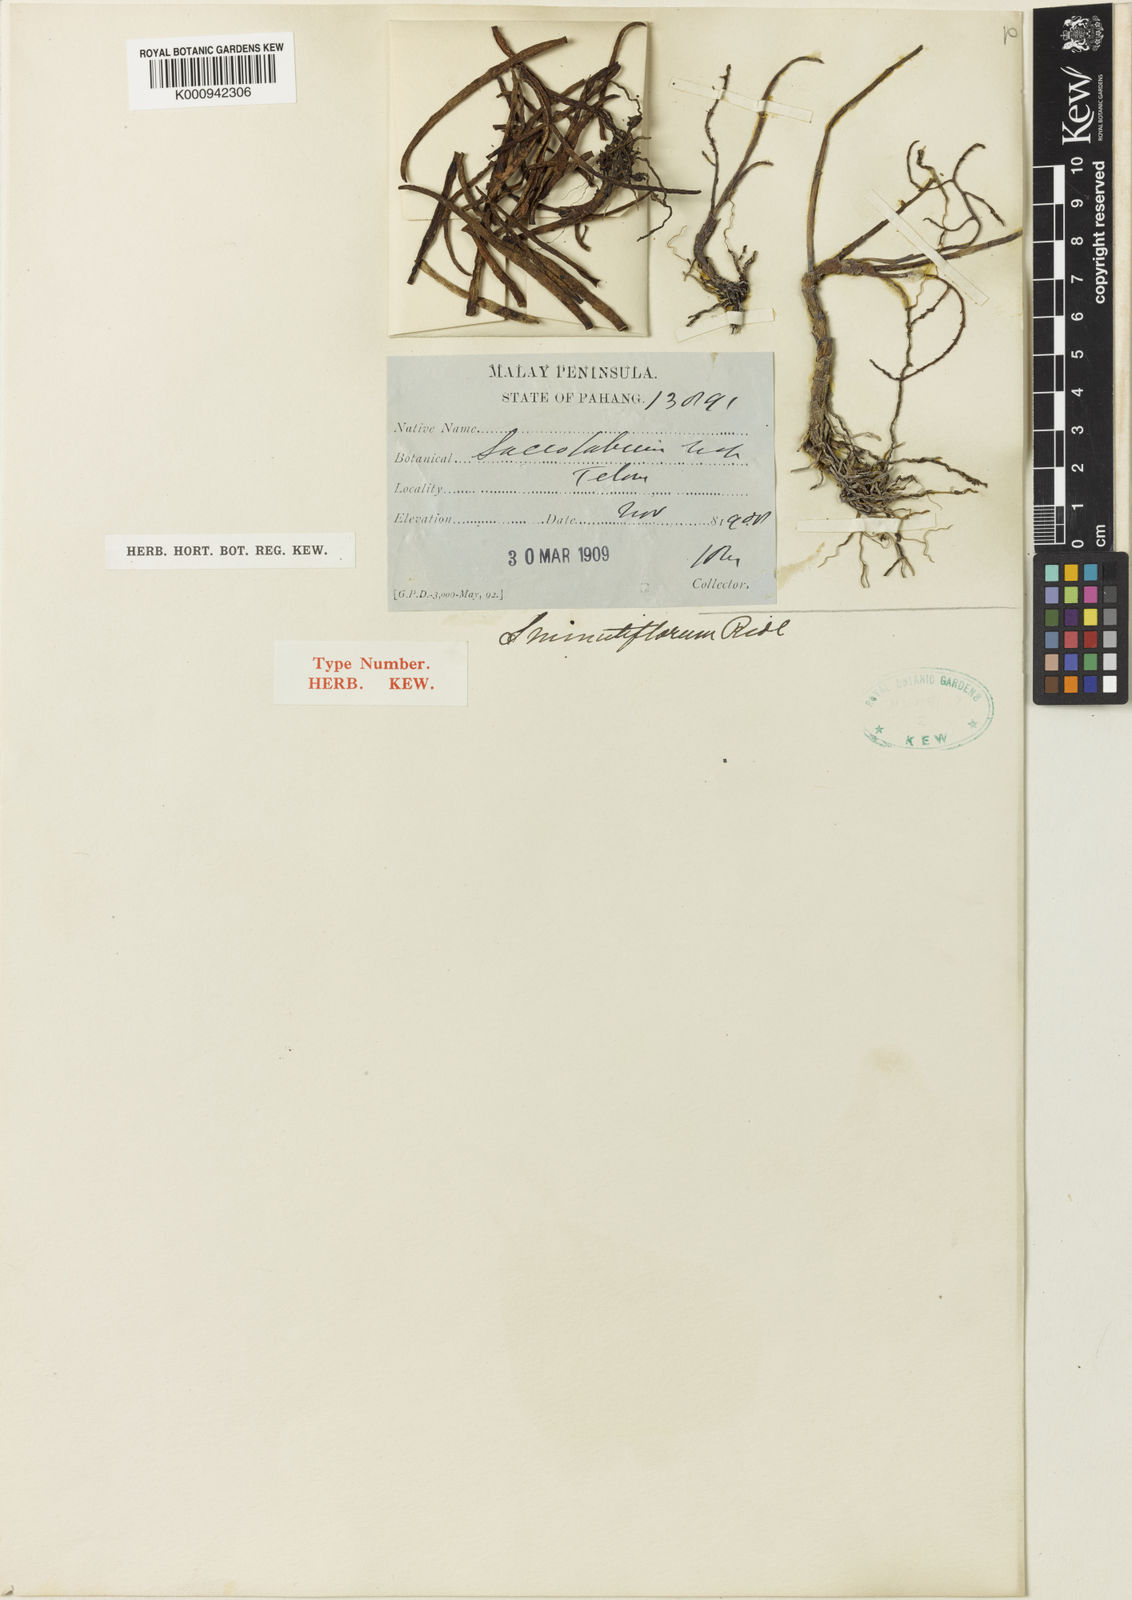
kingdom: Plantae
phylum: Tracheophyta
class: Liliopsida
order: Asparagales
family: Orchidaceae
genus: Schoenorchis
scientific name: Schoenorchis minutiflora
